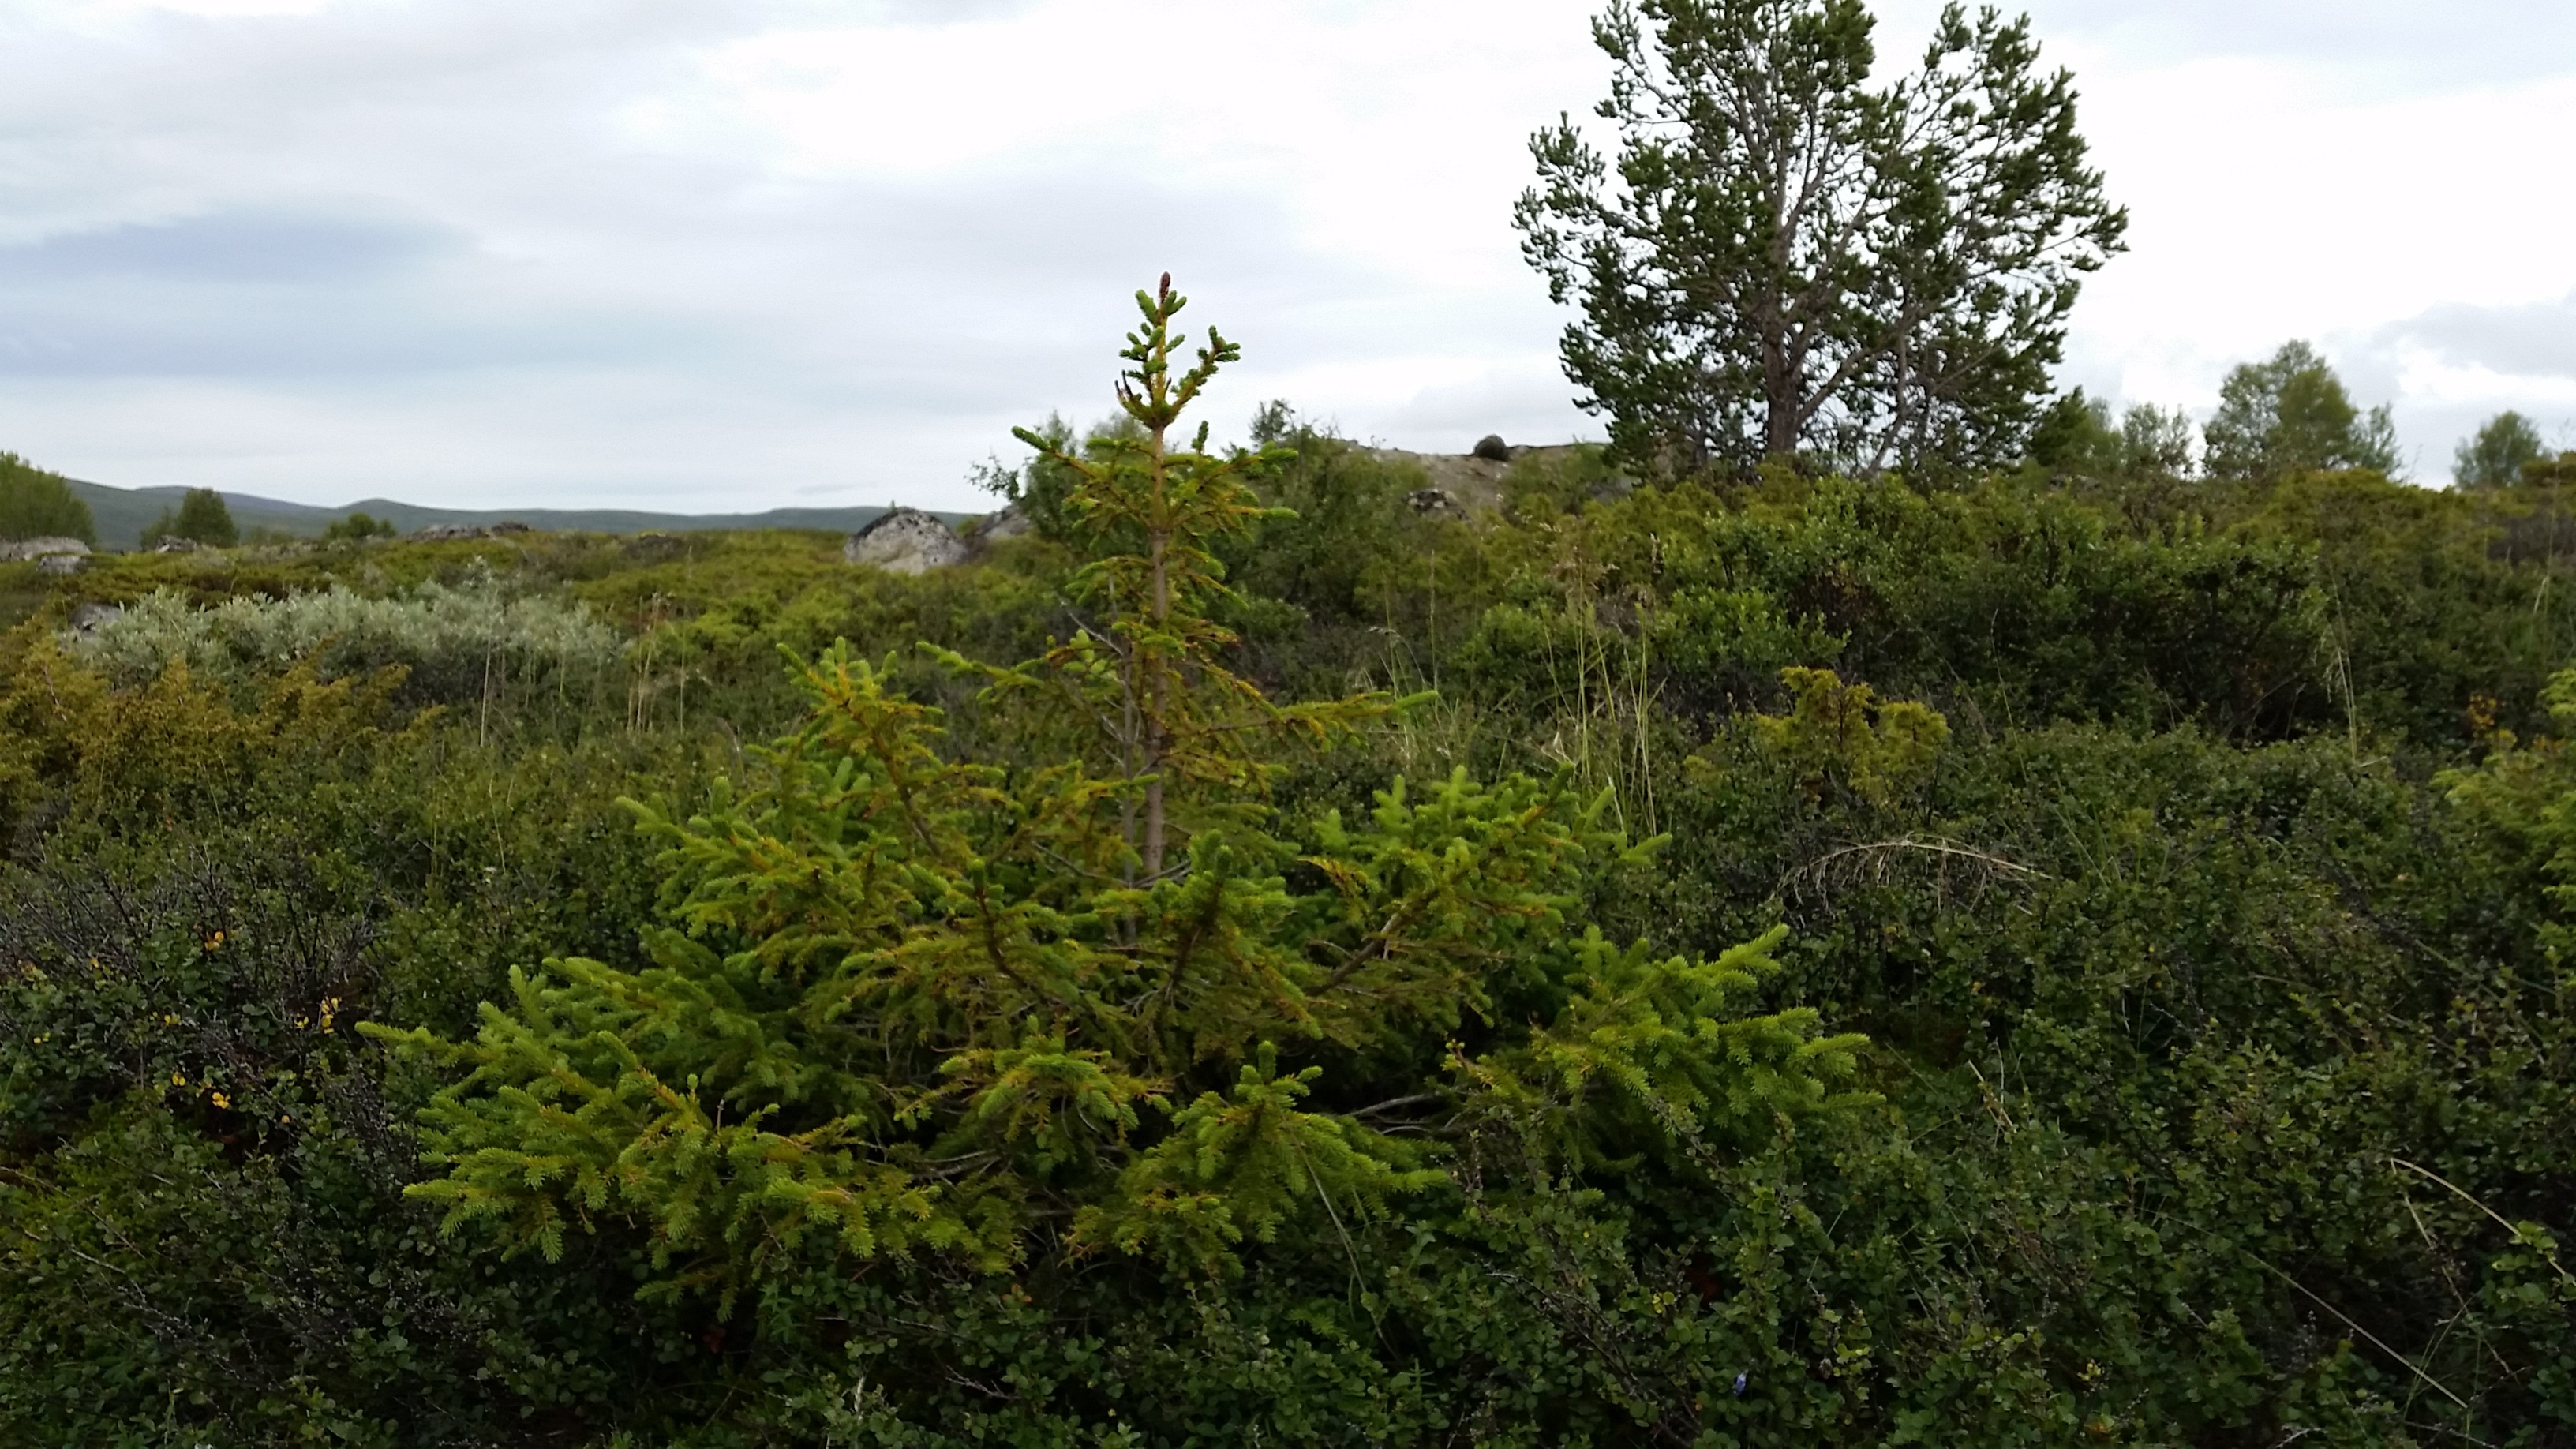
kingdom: Plantae
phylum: Tracheophyta
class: Pinopsida
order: Pinales
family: Pinaceae
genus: Picea
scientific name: Picea abies
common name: Norway spruce
